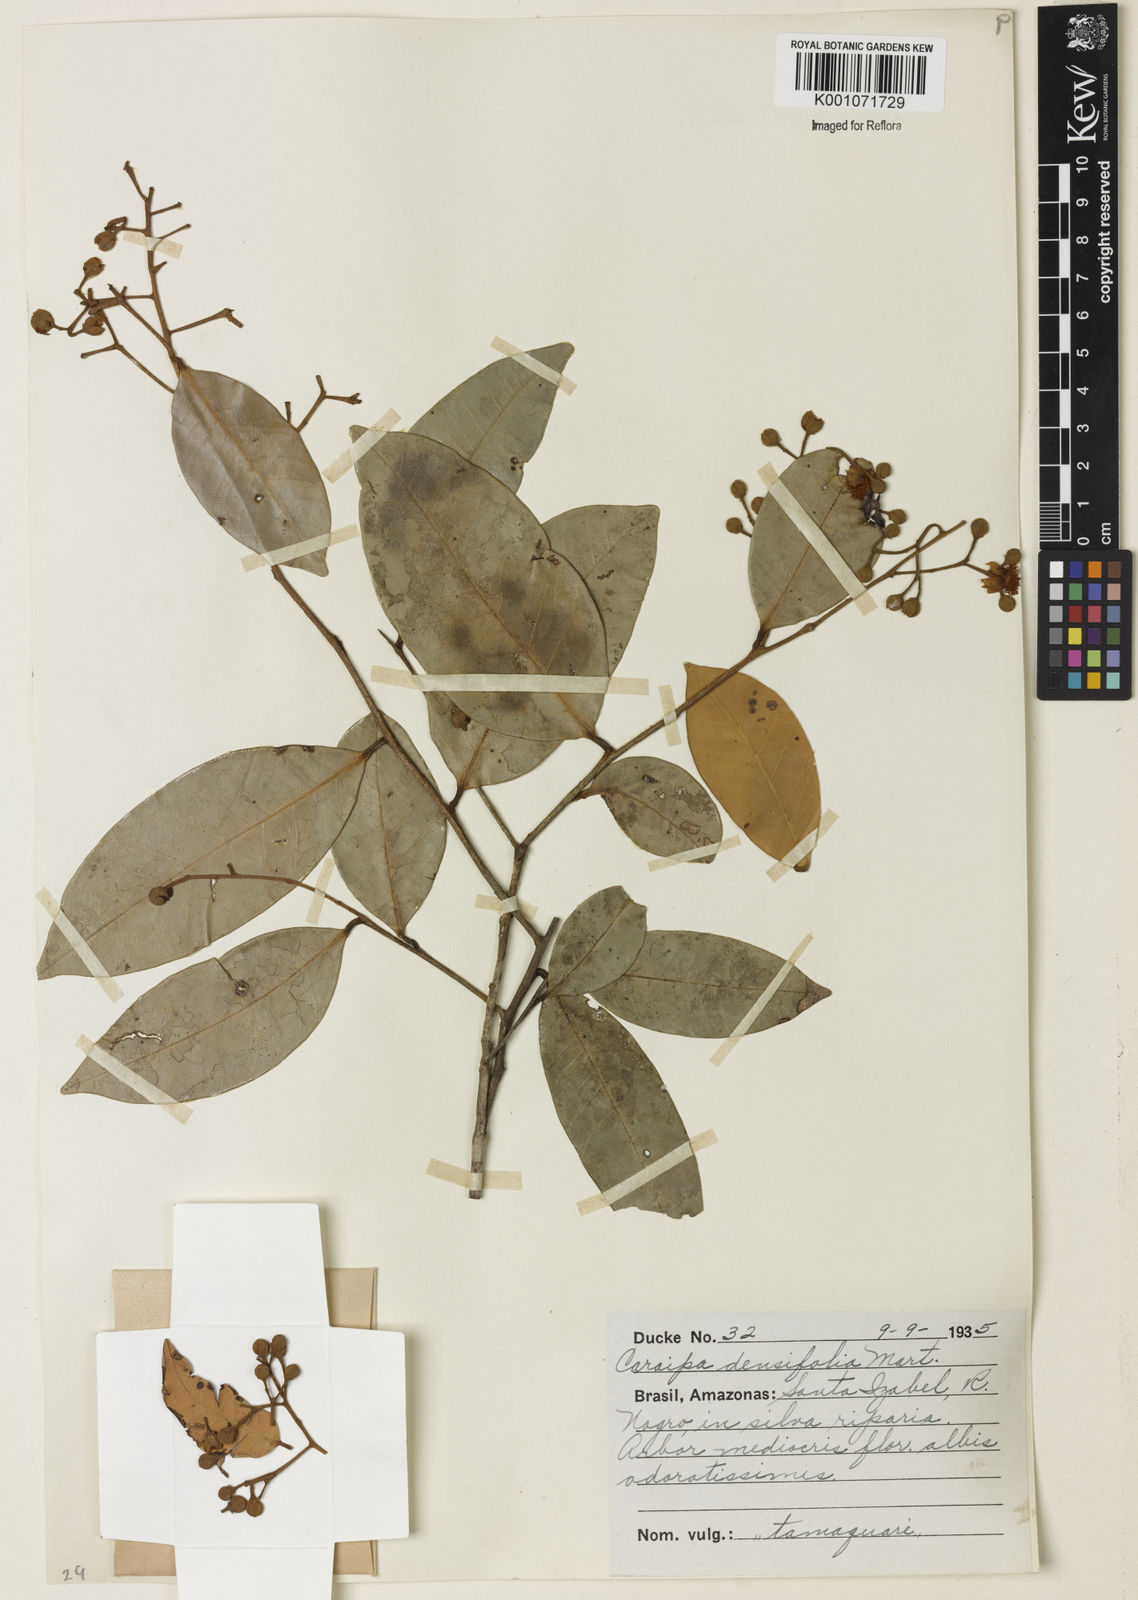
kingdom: Plantae
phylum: Tracheophyta
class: Magnoliopsida
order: Malpighiales
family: Calophyllaceae
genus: Caraipa
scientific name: Caraipa densifolia
